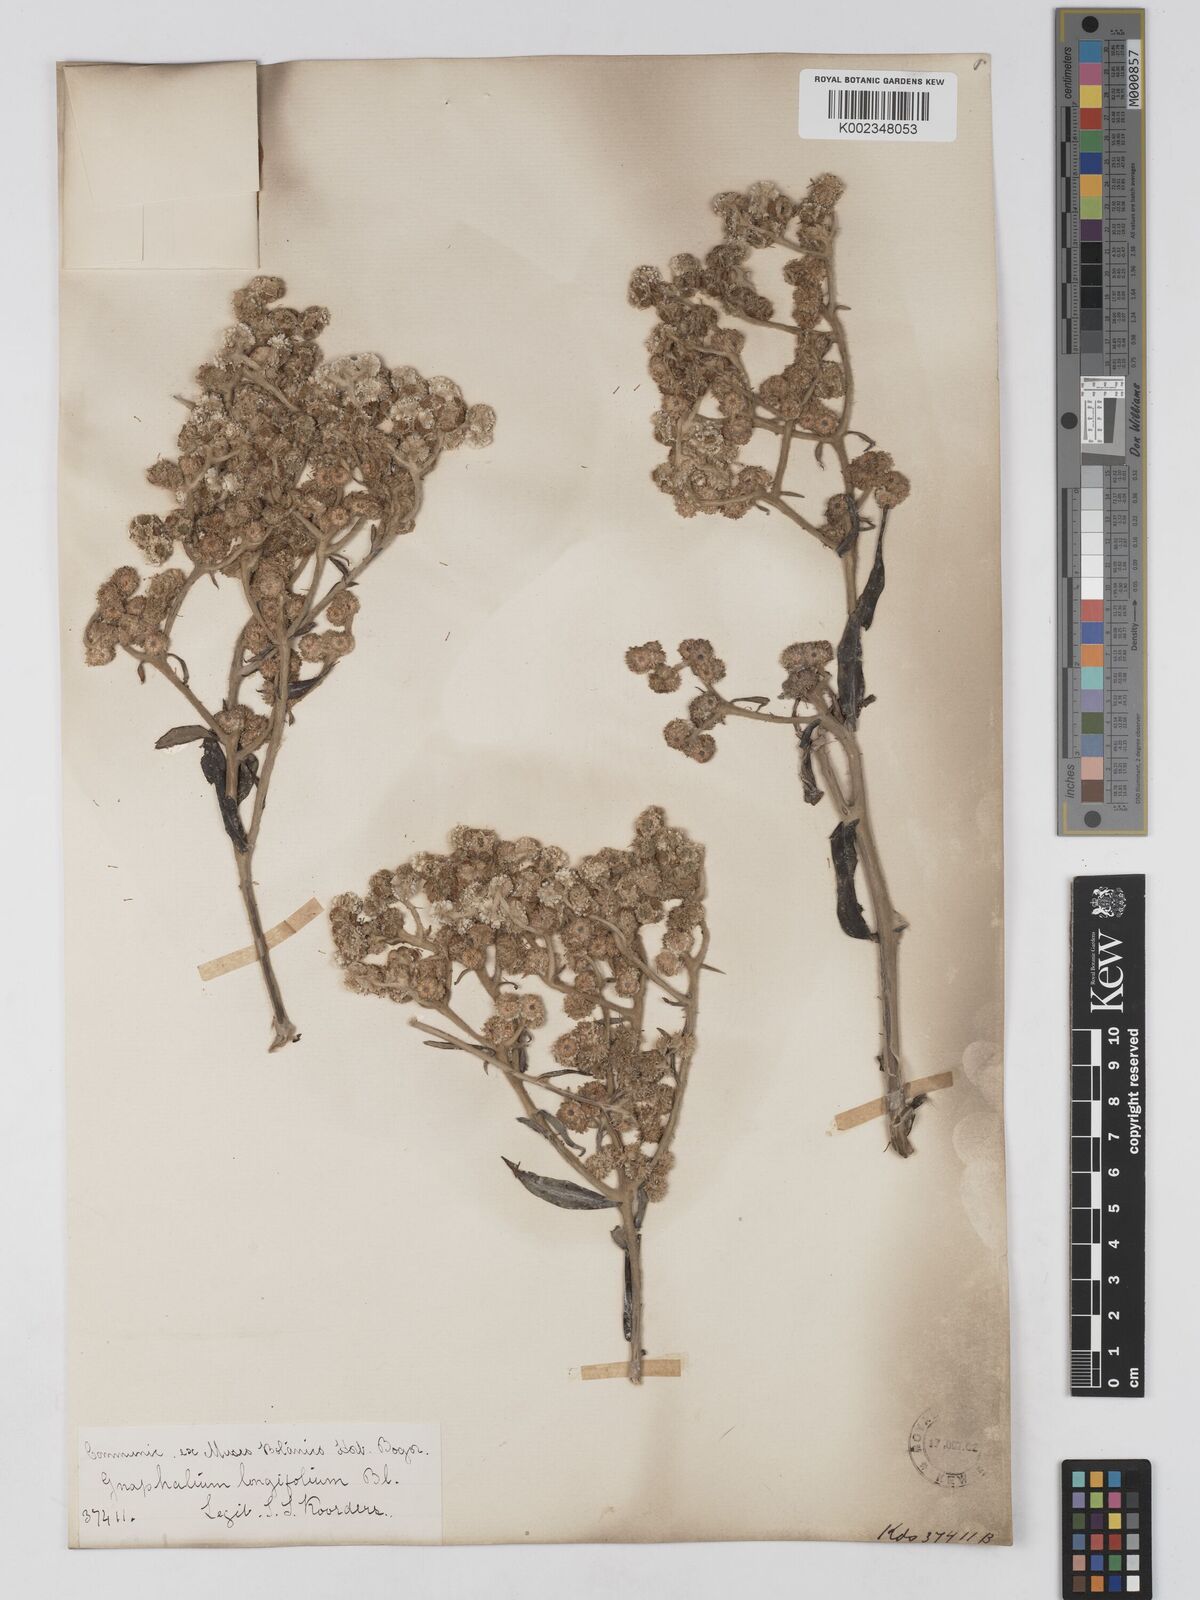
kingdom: Plantae
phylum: Tracheophyta
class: Magnoliopsida
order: Asterales
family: Asteraceae
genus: Anaphalis
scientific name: Anaphalis longifolia
